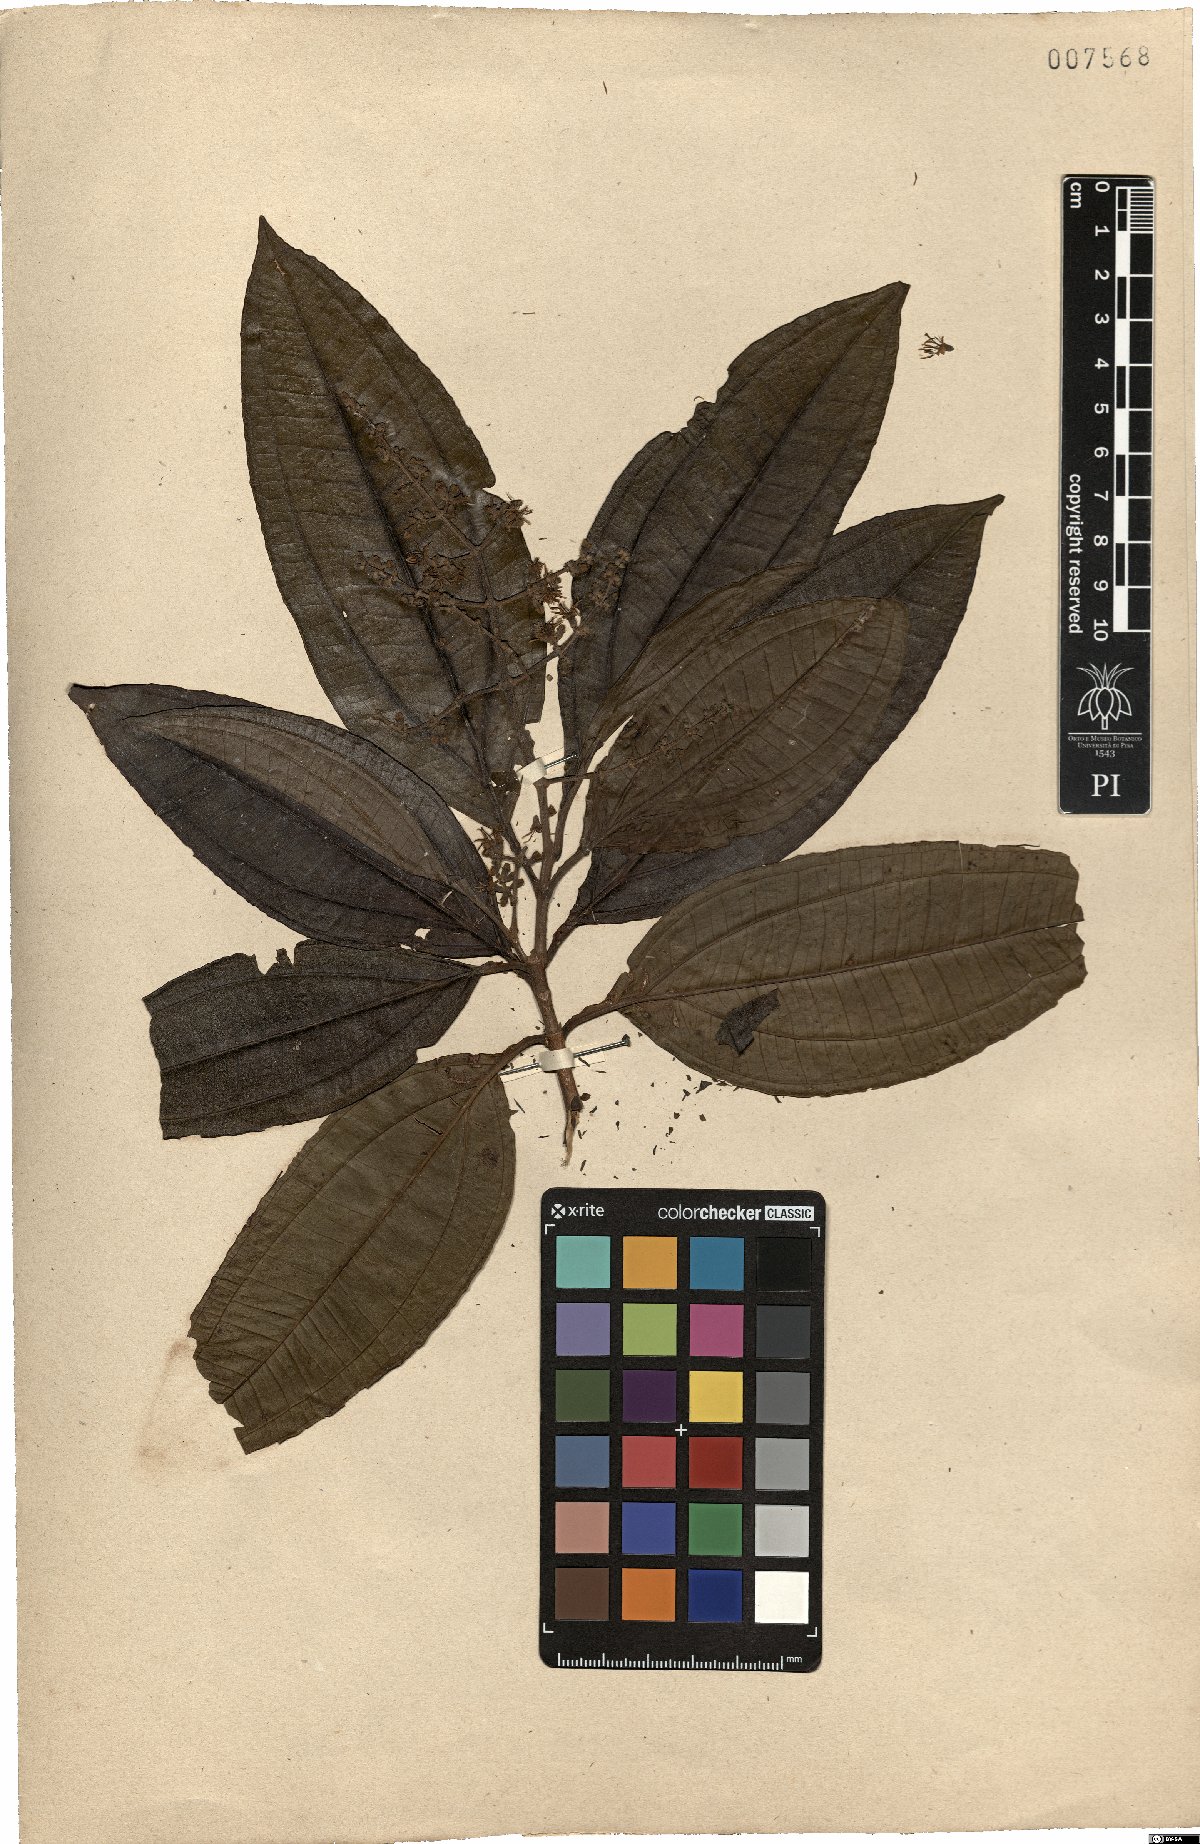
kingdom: Plantae
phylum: Tracheophyta
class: Magnoliopsida
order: Myrtales
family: Melastomataceae
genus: Miconia
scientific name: Miconia prasina
